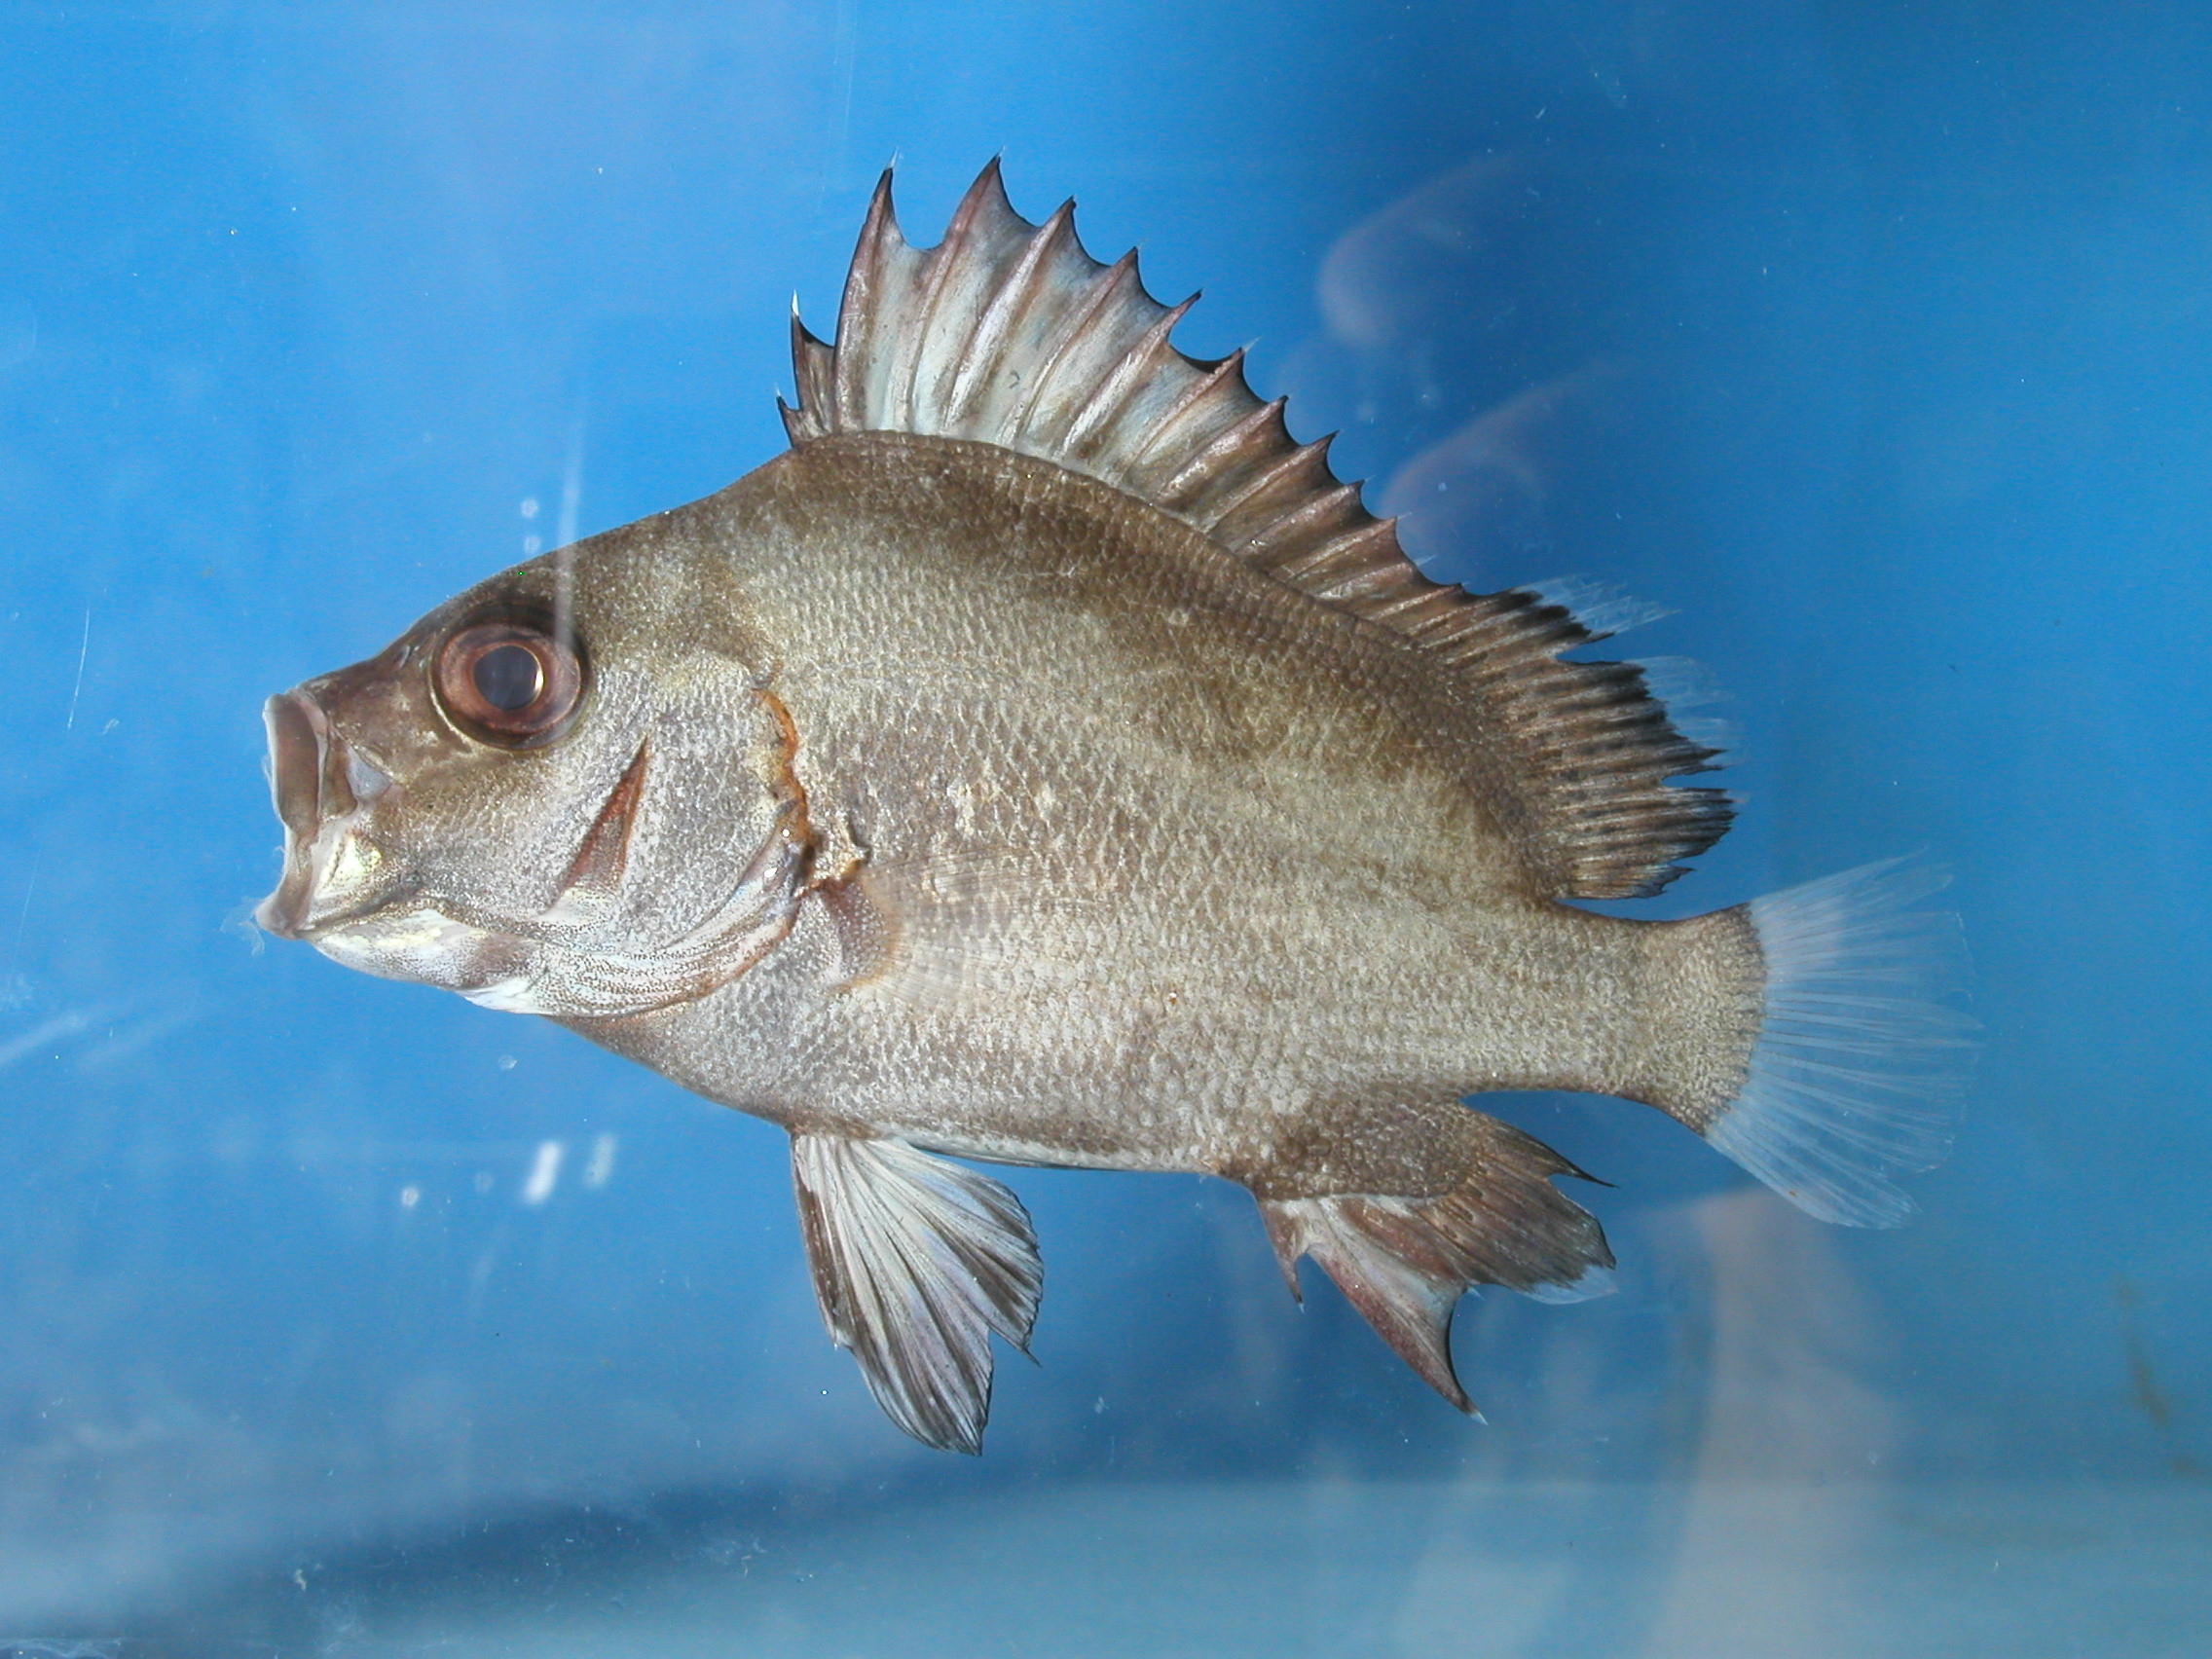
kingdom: Animalia
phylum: Chordata
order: Perciformes
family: Haemulidae
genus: Plectorhinchus
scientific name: Plectorhinchus gibbosus
